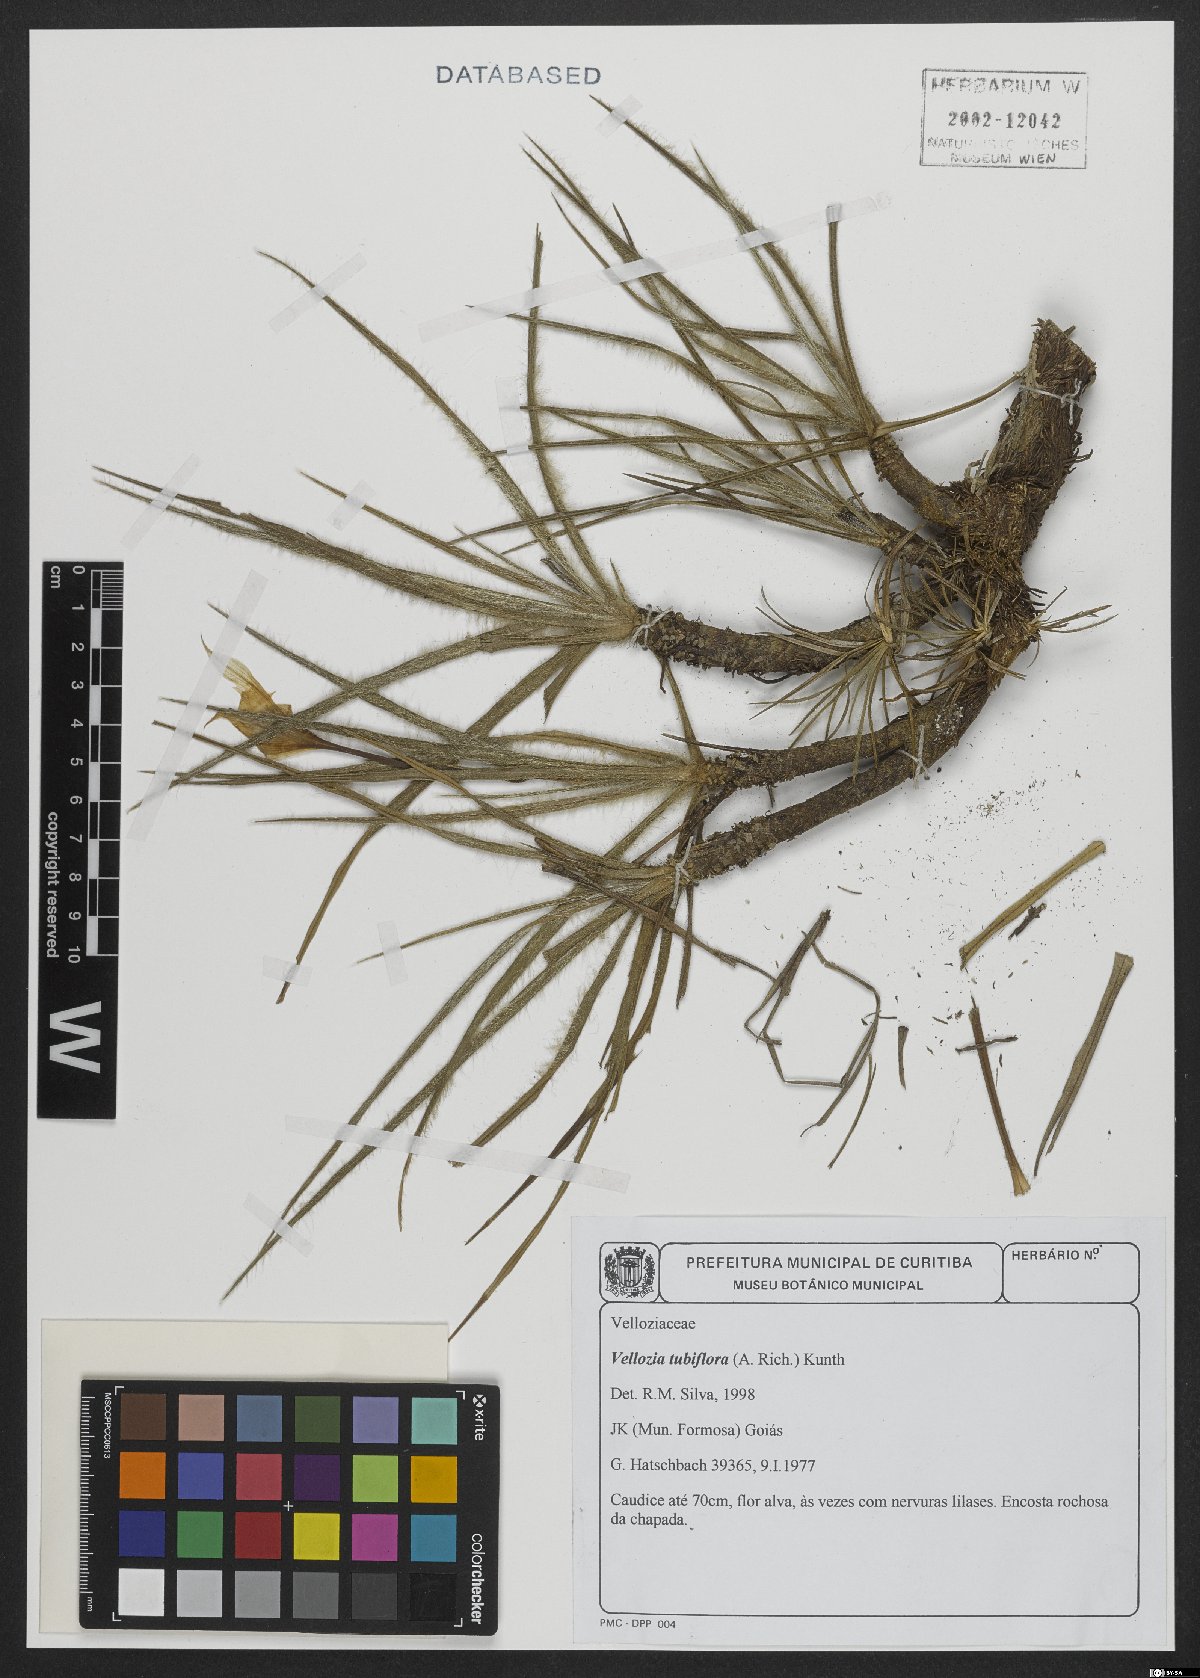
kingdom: Plantae
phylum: Tracheophyta
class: Liliopsida
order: Pandanales
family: Velloziaceae
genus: Vellozia
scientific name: Vellozia tubiflora
